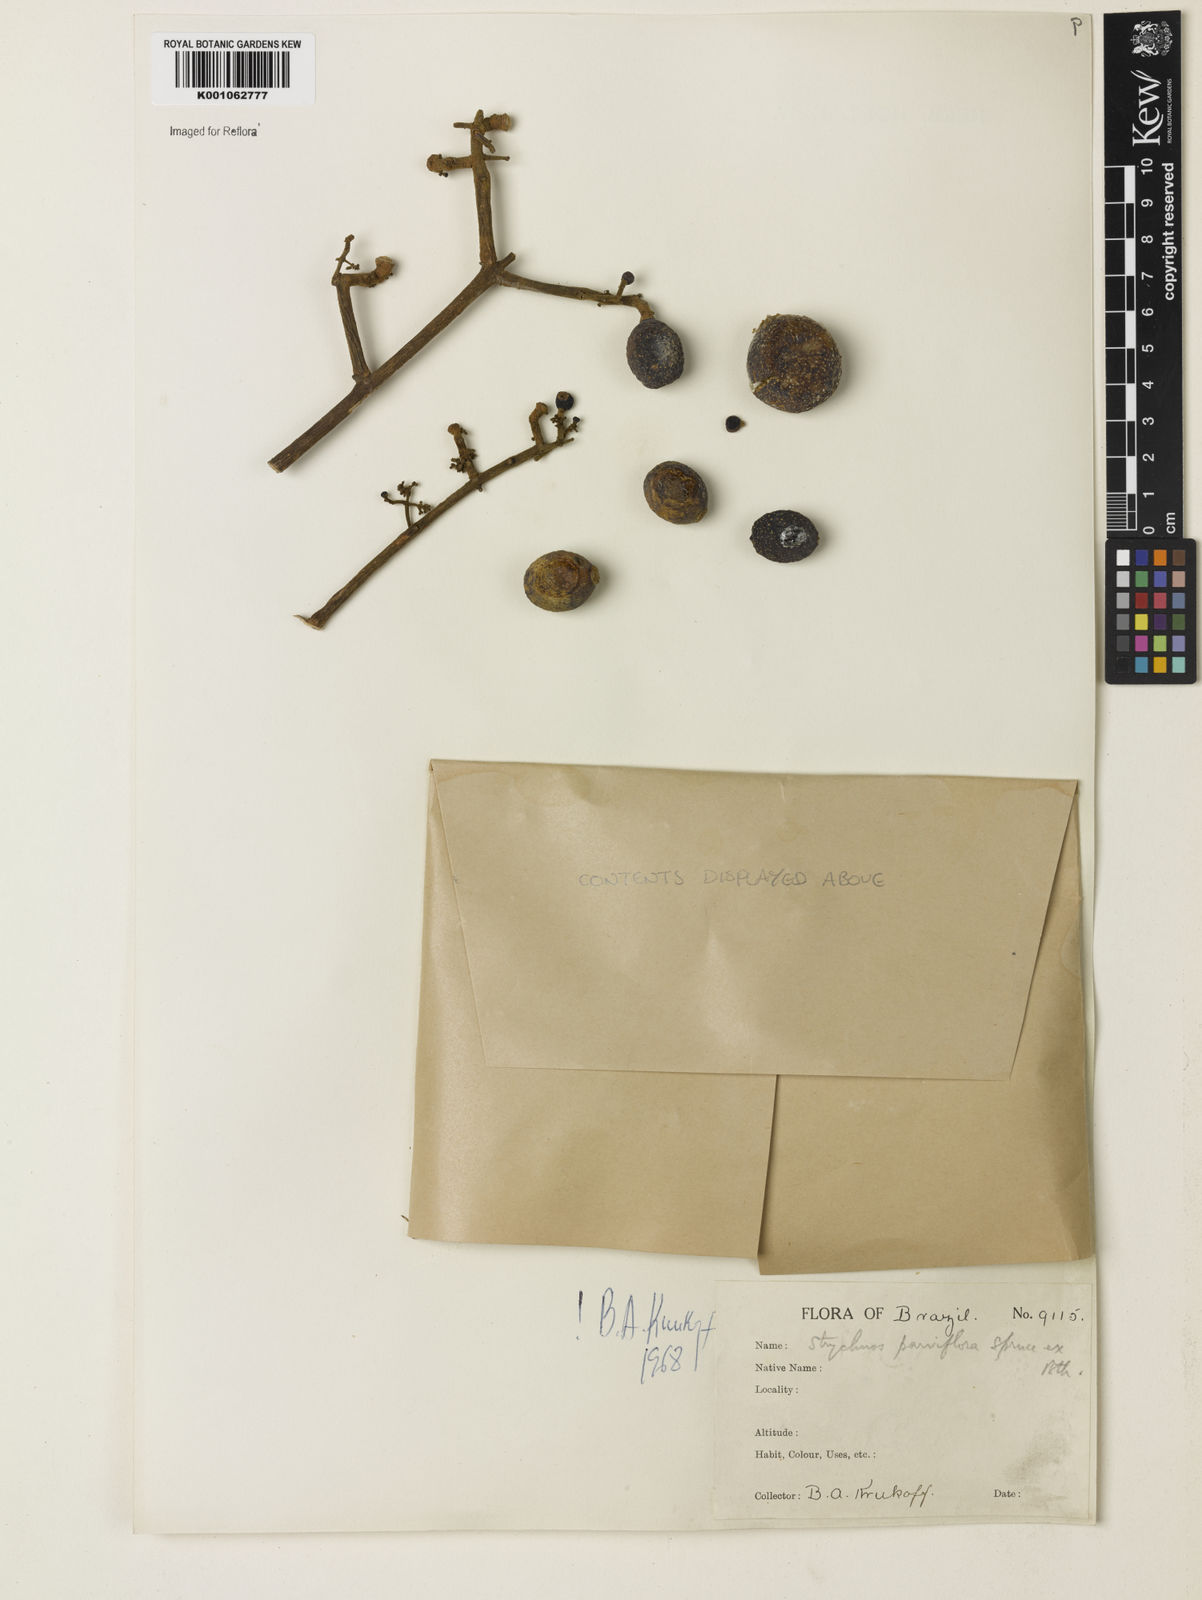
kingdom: Plantae
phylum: Tracheophyta
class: Magnoliopsida
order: Gentianales
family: Loganiaceae
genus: Strychnos
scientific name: Strychnos parviflora
